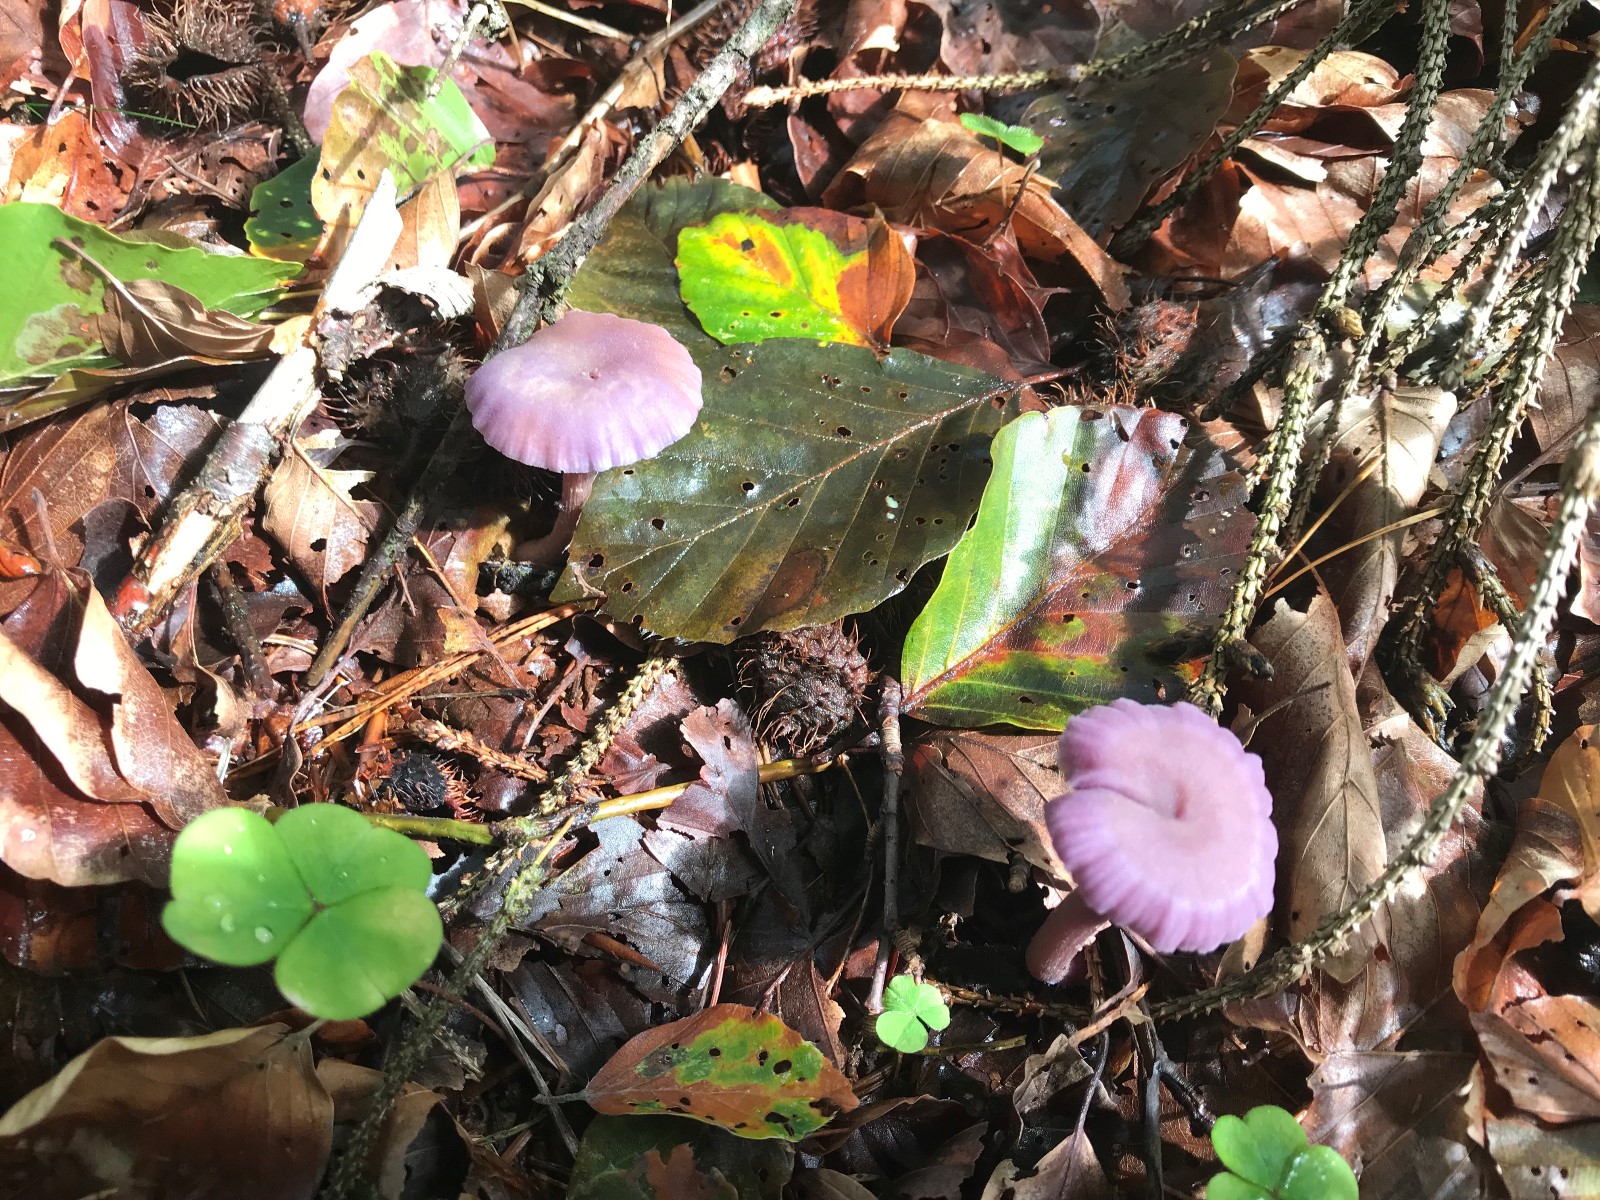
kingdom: Fungi
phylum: Basidiomycota
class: Agaricomycetes
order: Agaricales
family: Hydnangiaceae
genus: Laccaria
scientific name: Laccaria amethystina
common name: violet ametysthat
